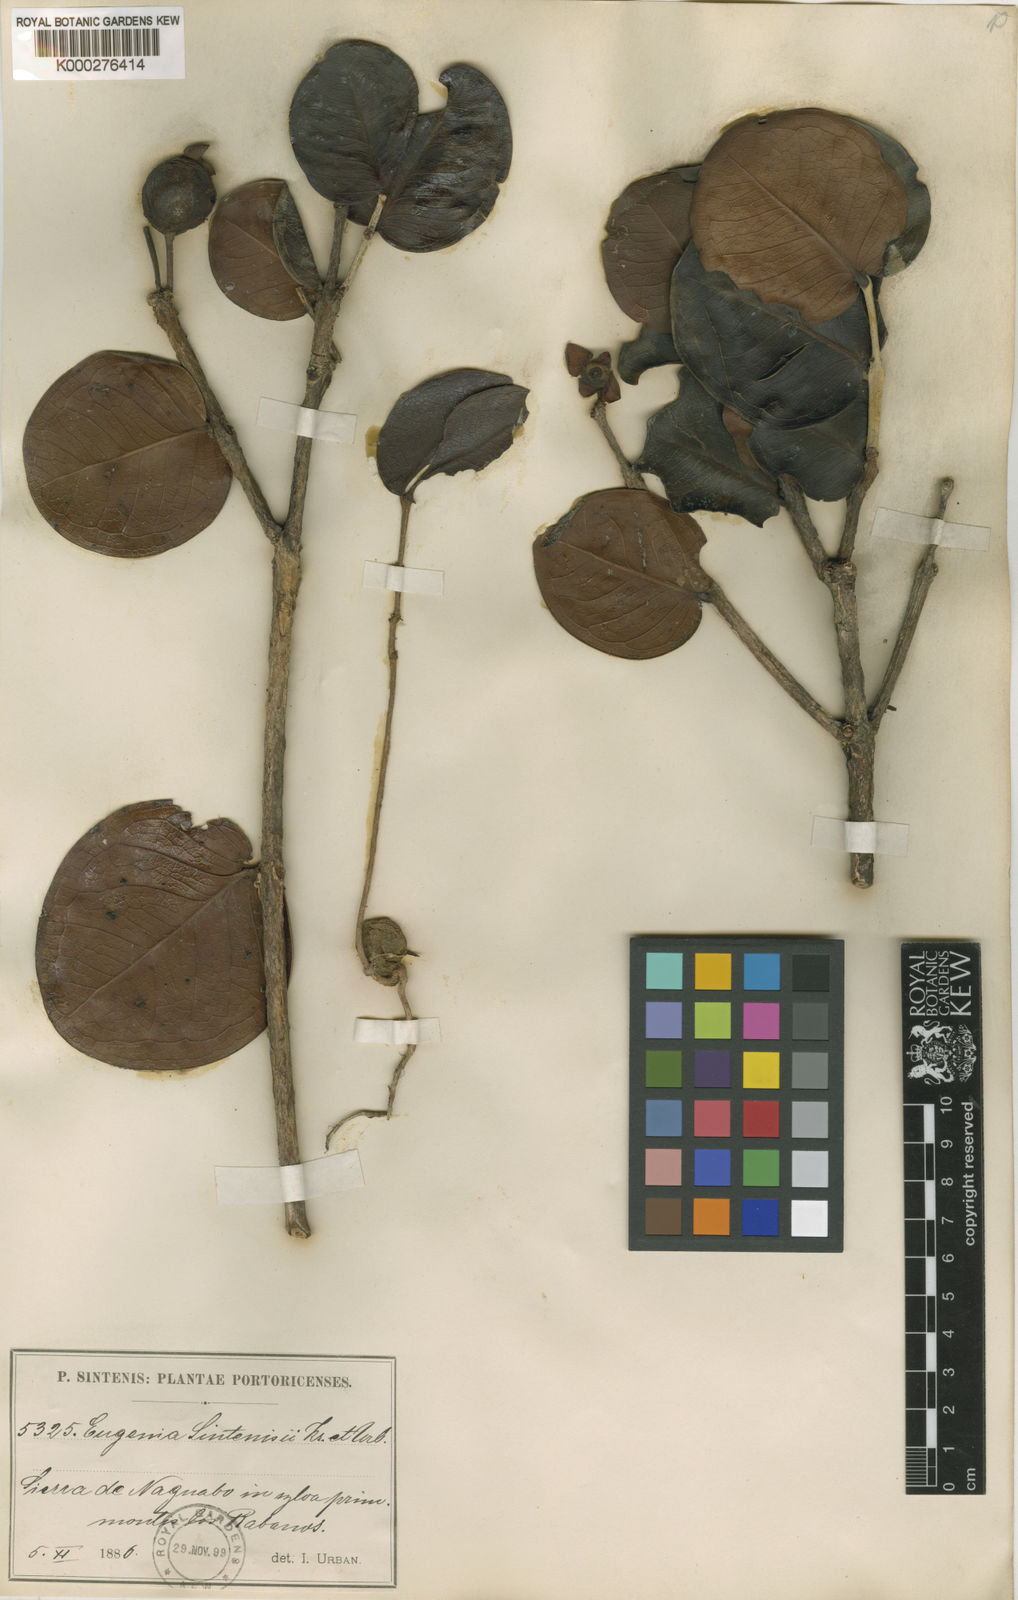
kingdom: Plantae
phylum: Tracheophyta
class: Magnoliopsida
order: Myrtales
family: Myrtaceae
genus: Eugenia
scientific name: Eugenia cordata
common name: Lathberry
